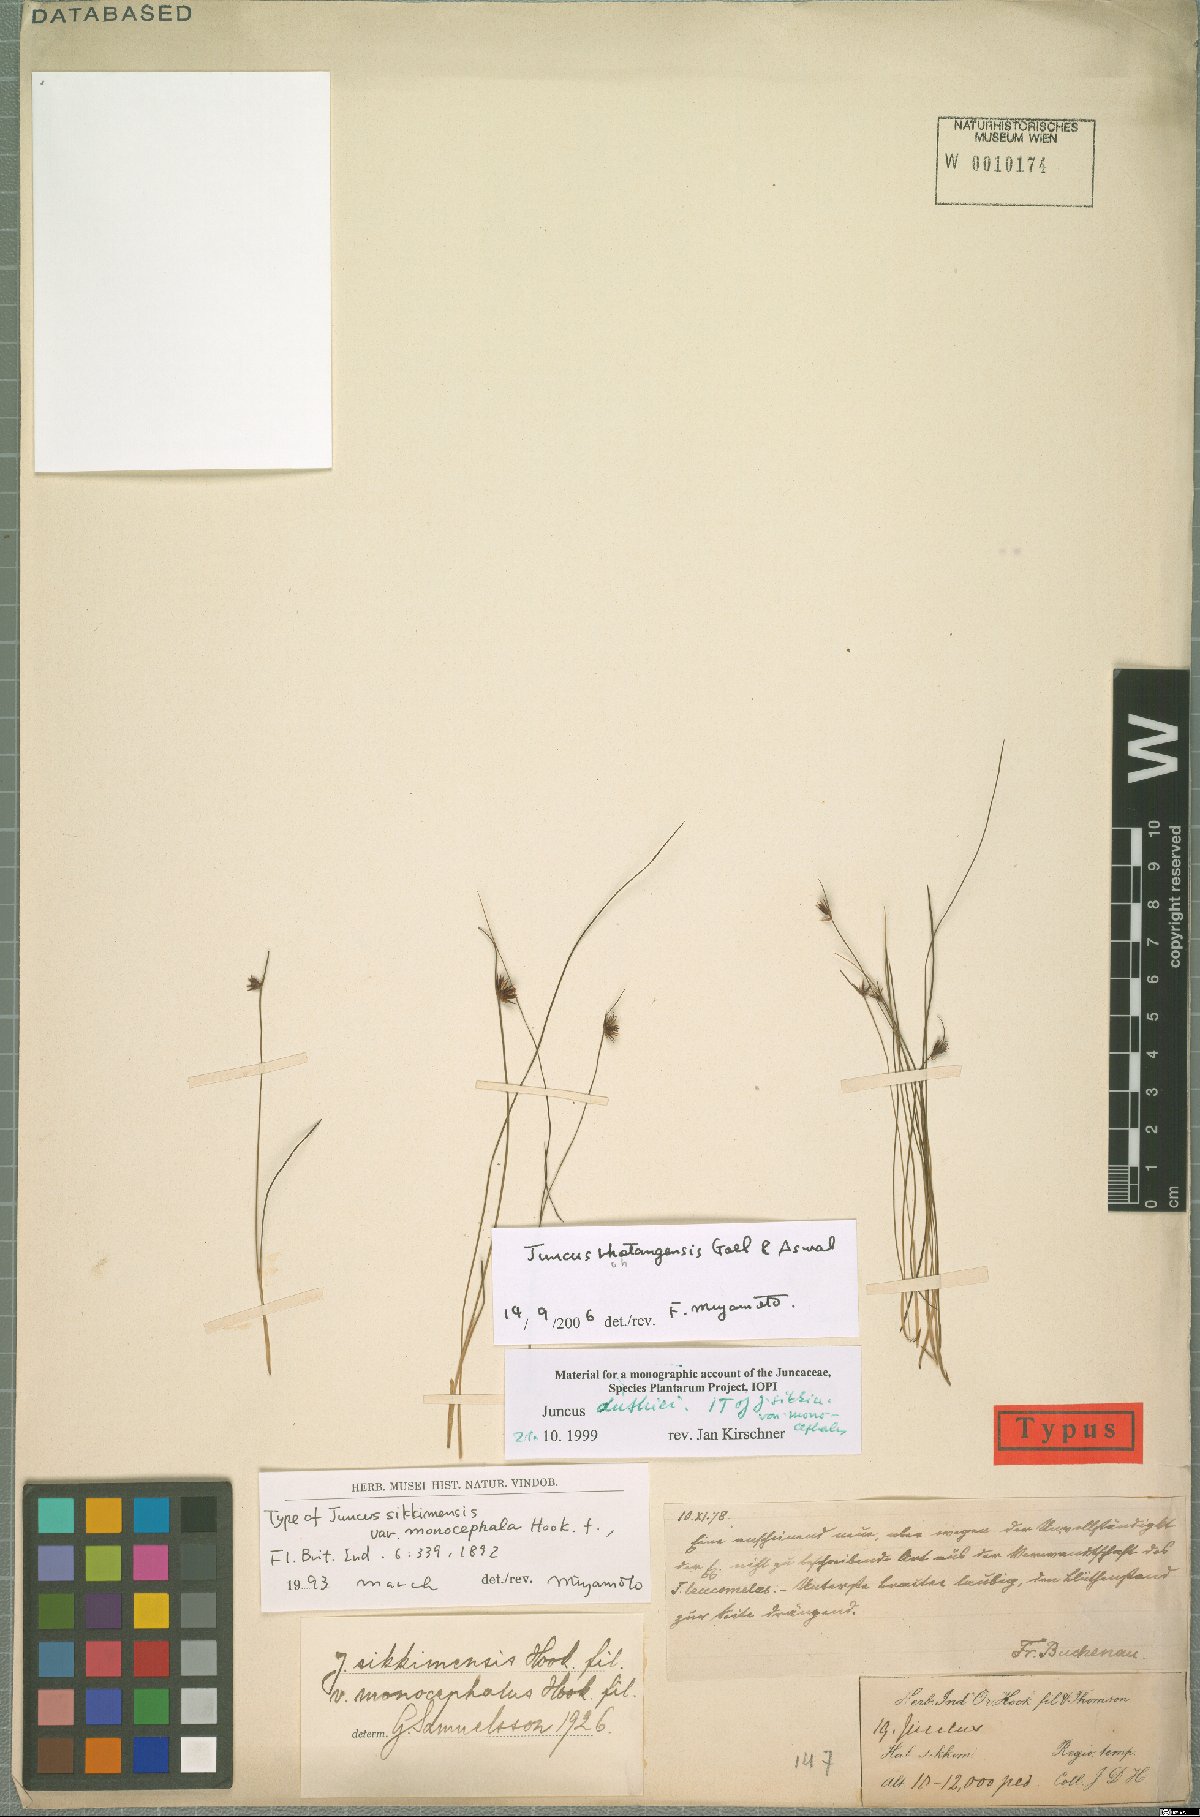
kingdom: Plantae
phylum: Tracheophyta
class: Liliopsida
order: Poales
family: Juncaceae
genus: Juncus
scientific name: Juncus rohtangensis
